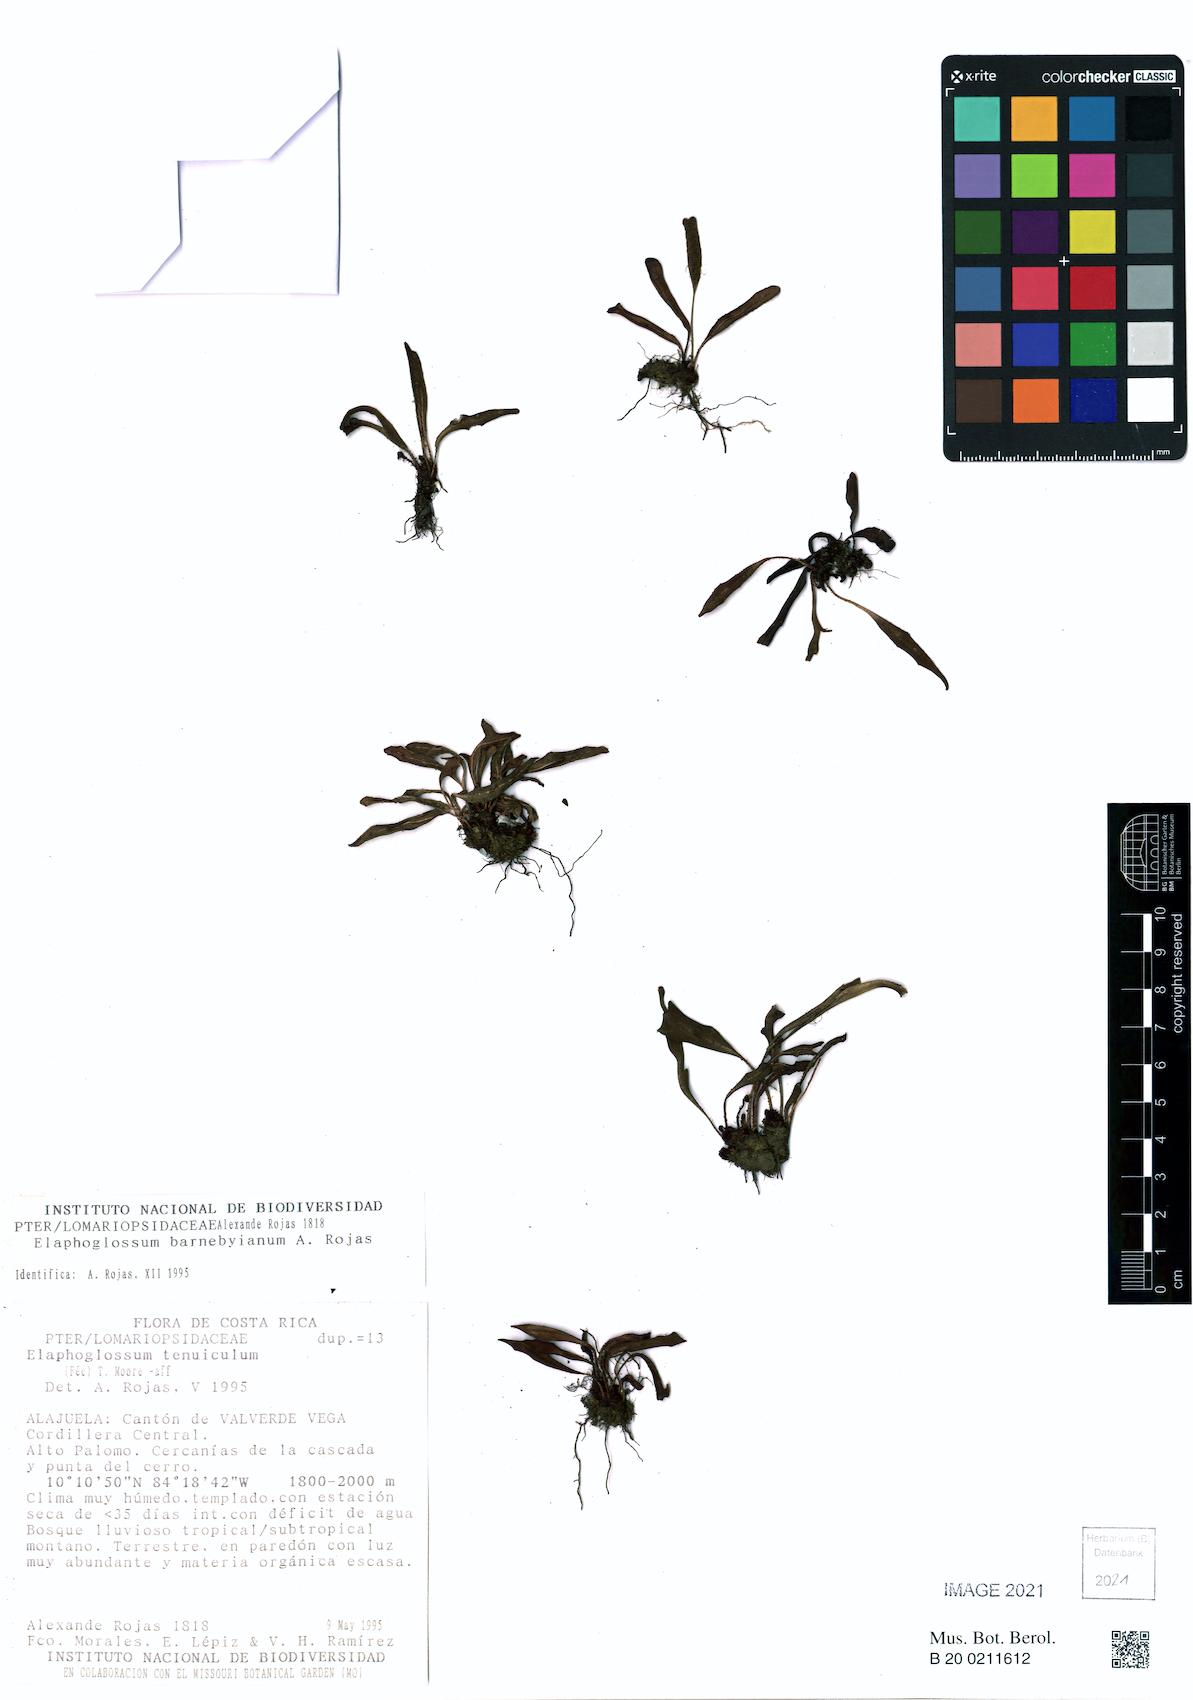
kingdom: Plantae
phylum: Tracheophyta
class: Polypodiopsida
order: Polypodiales
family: Dryopteridaceae
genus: Elaphoglossum
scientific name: Elaphoglossum tenuiculum
